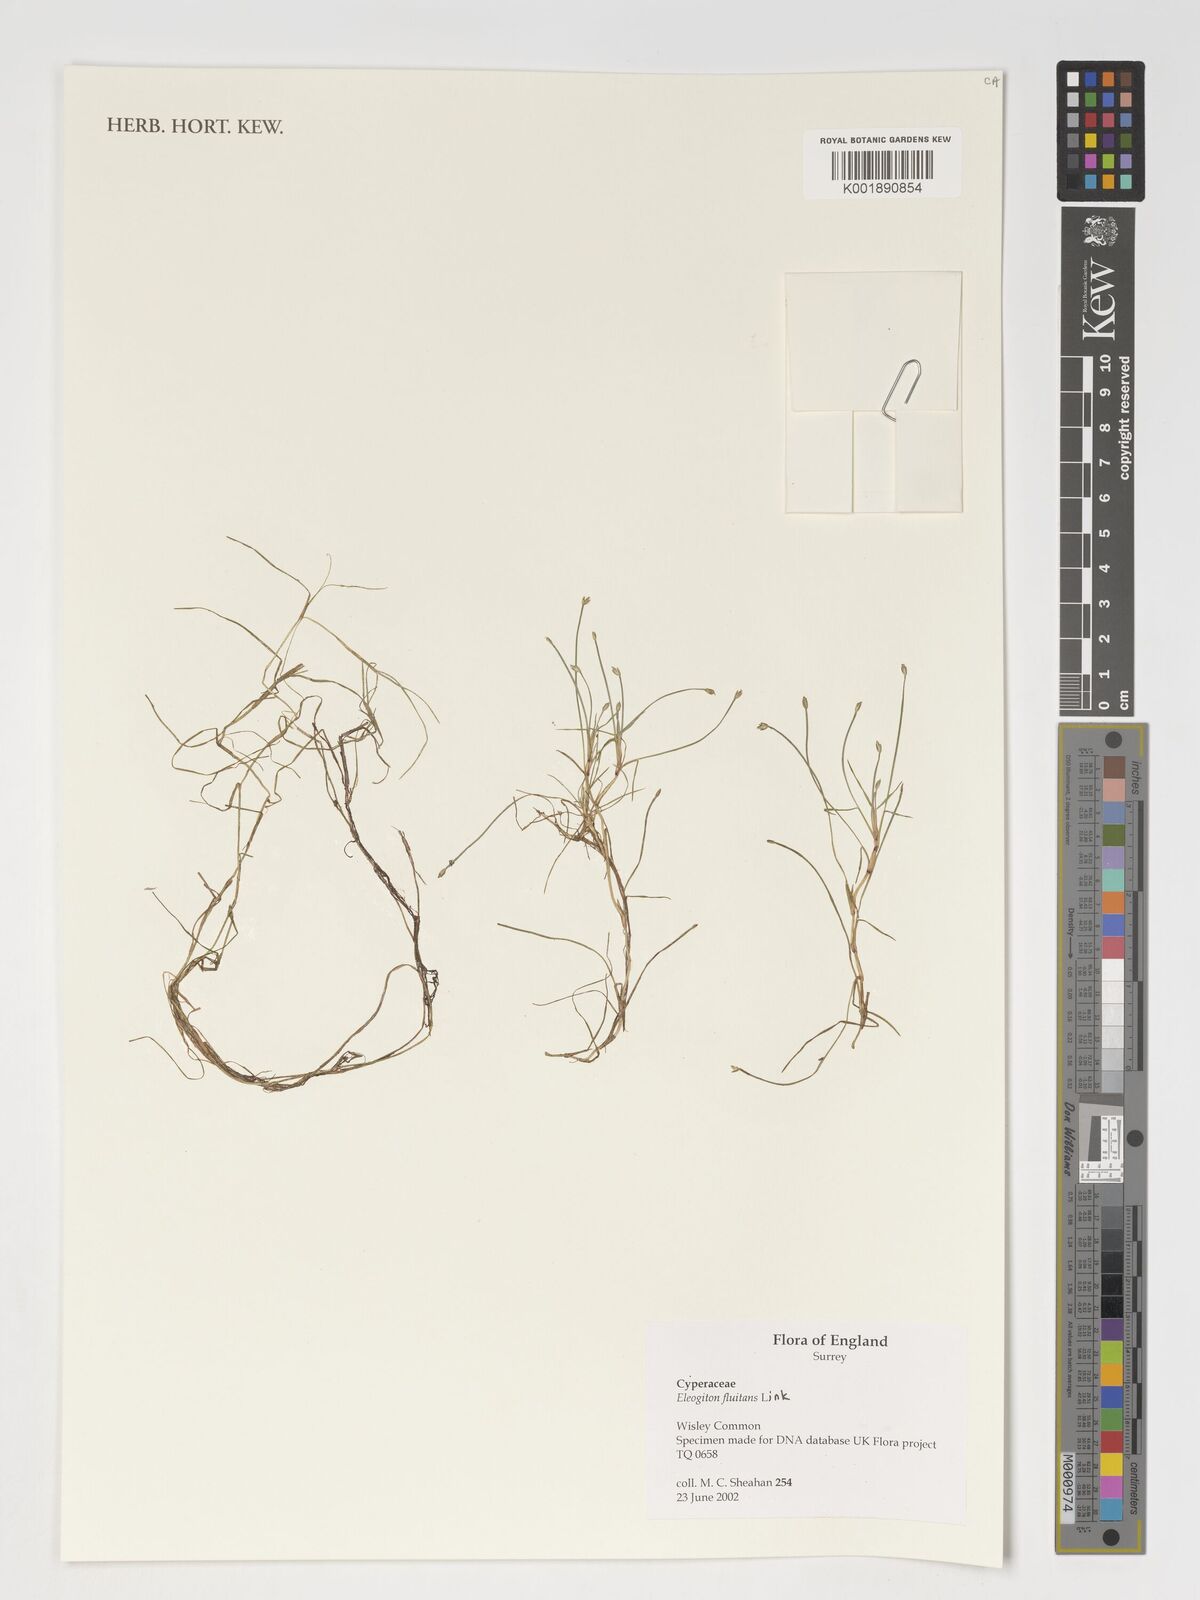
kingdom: Plantae
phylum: Tracheophyta
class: Liliopsida
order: Poales
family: Cyperaceae
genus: Isolepis
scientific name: Isolepis fluitans
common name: Floating club-rush
